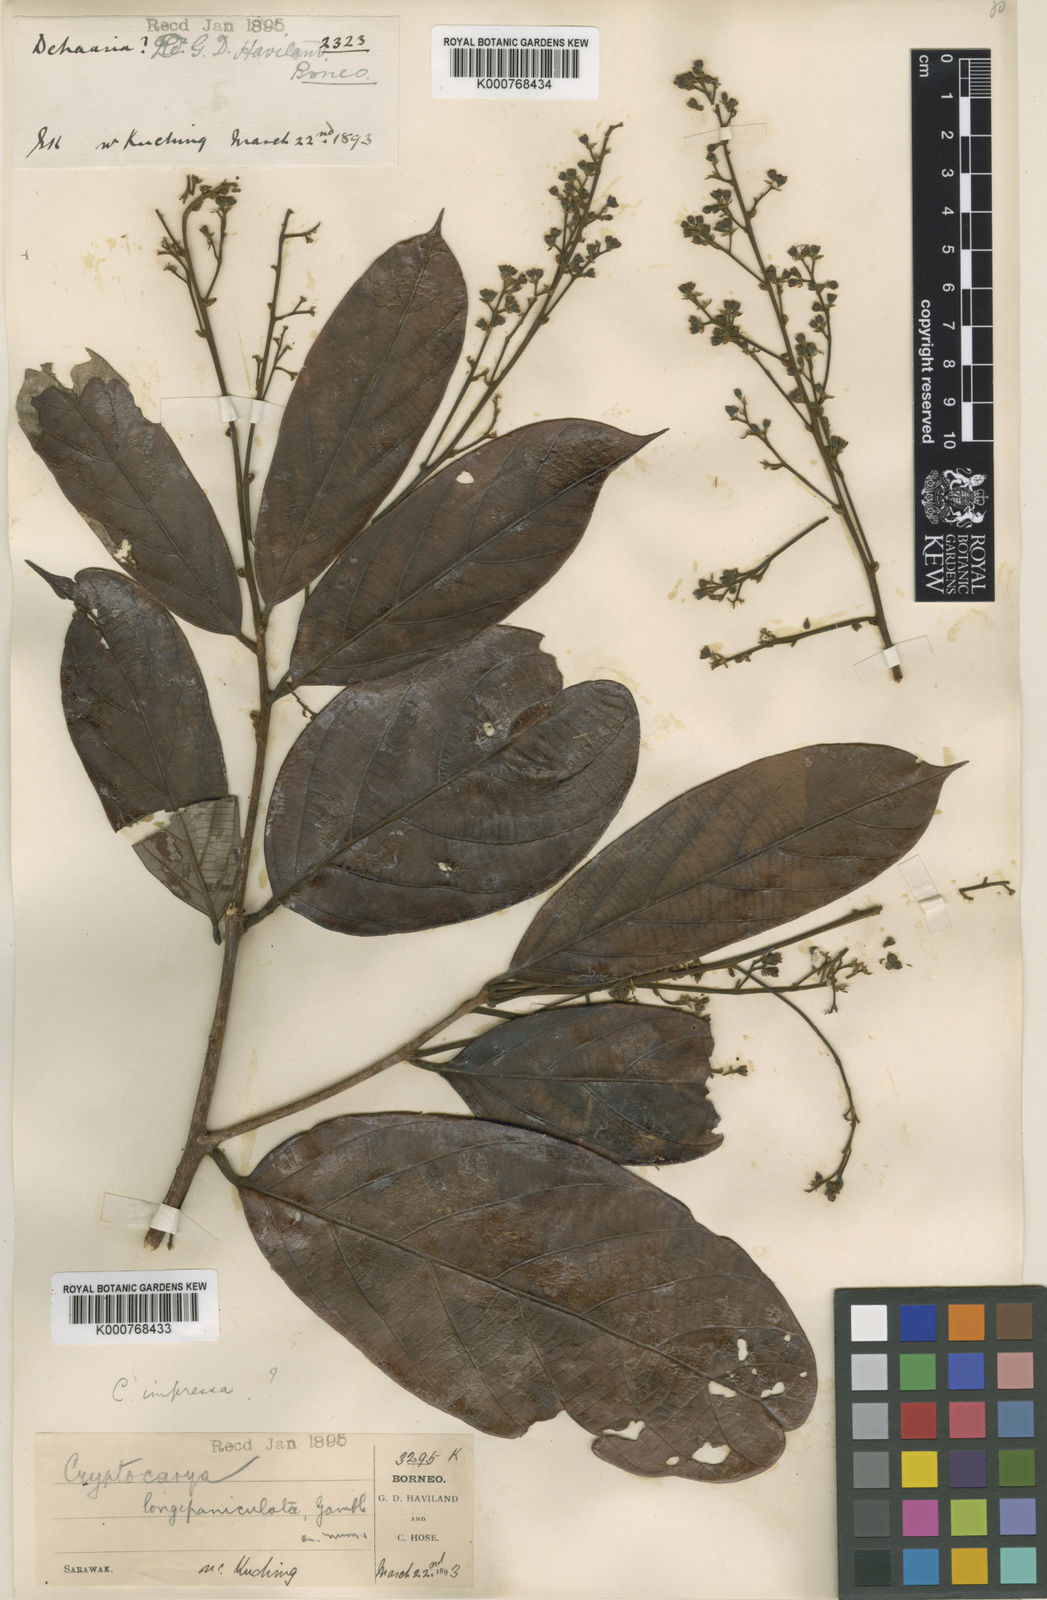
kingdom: Plantae
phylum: Tracheophyta
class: Magnoliopsida
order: Laurales
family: Lauraceae
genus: Cryptocarya
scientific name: Cryptocarya rugulosa
